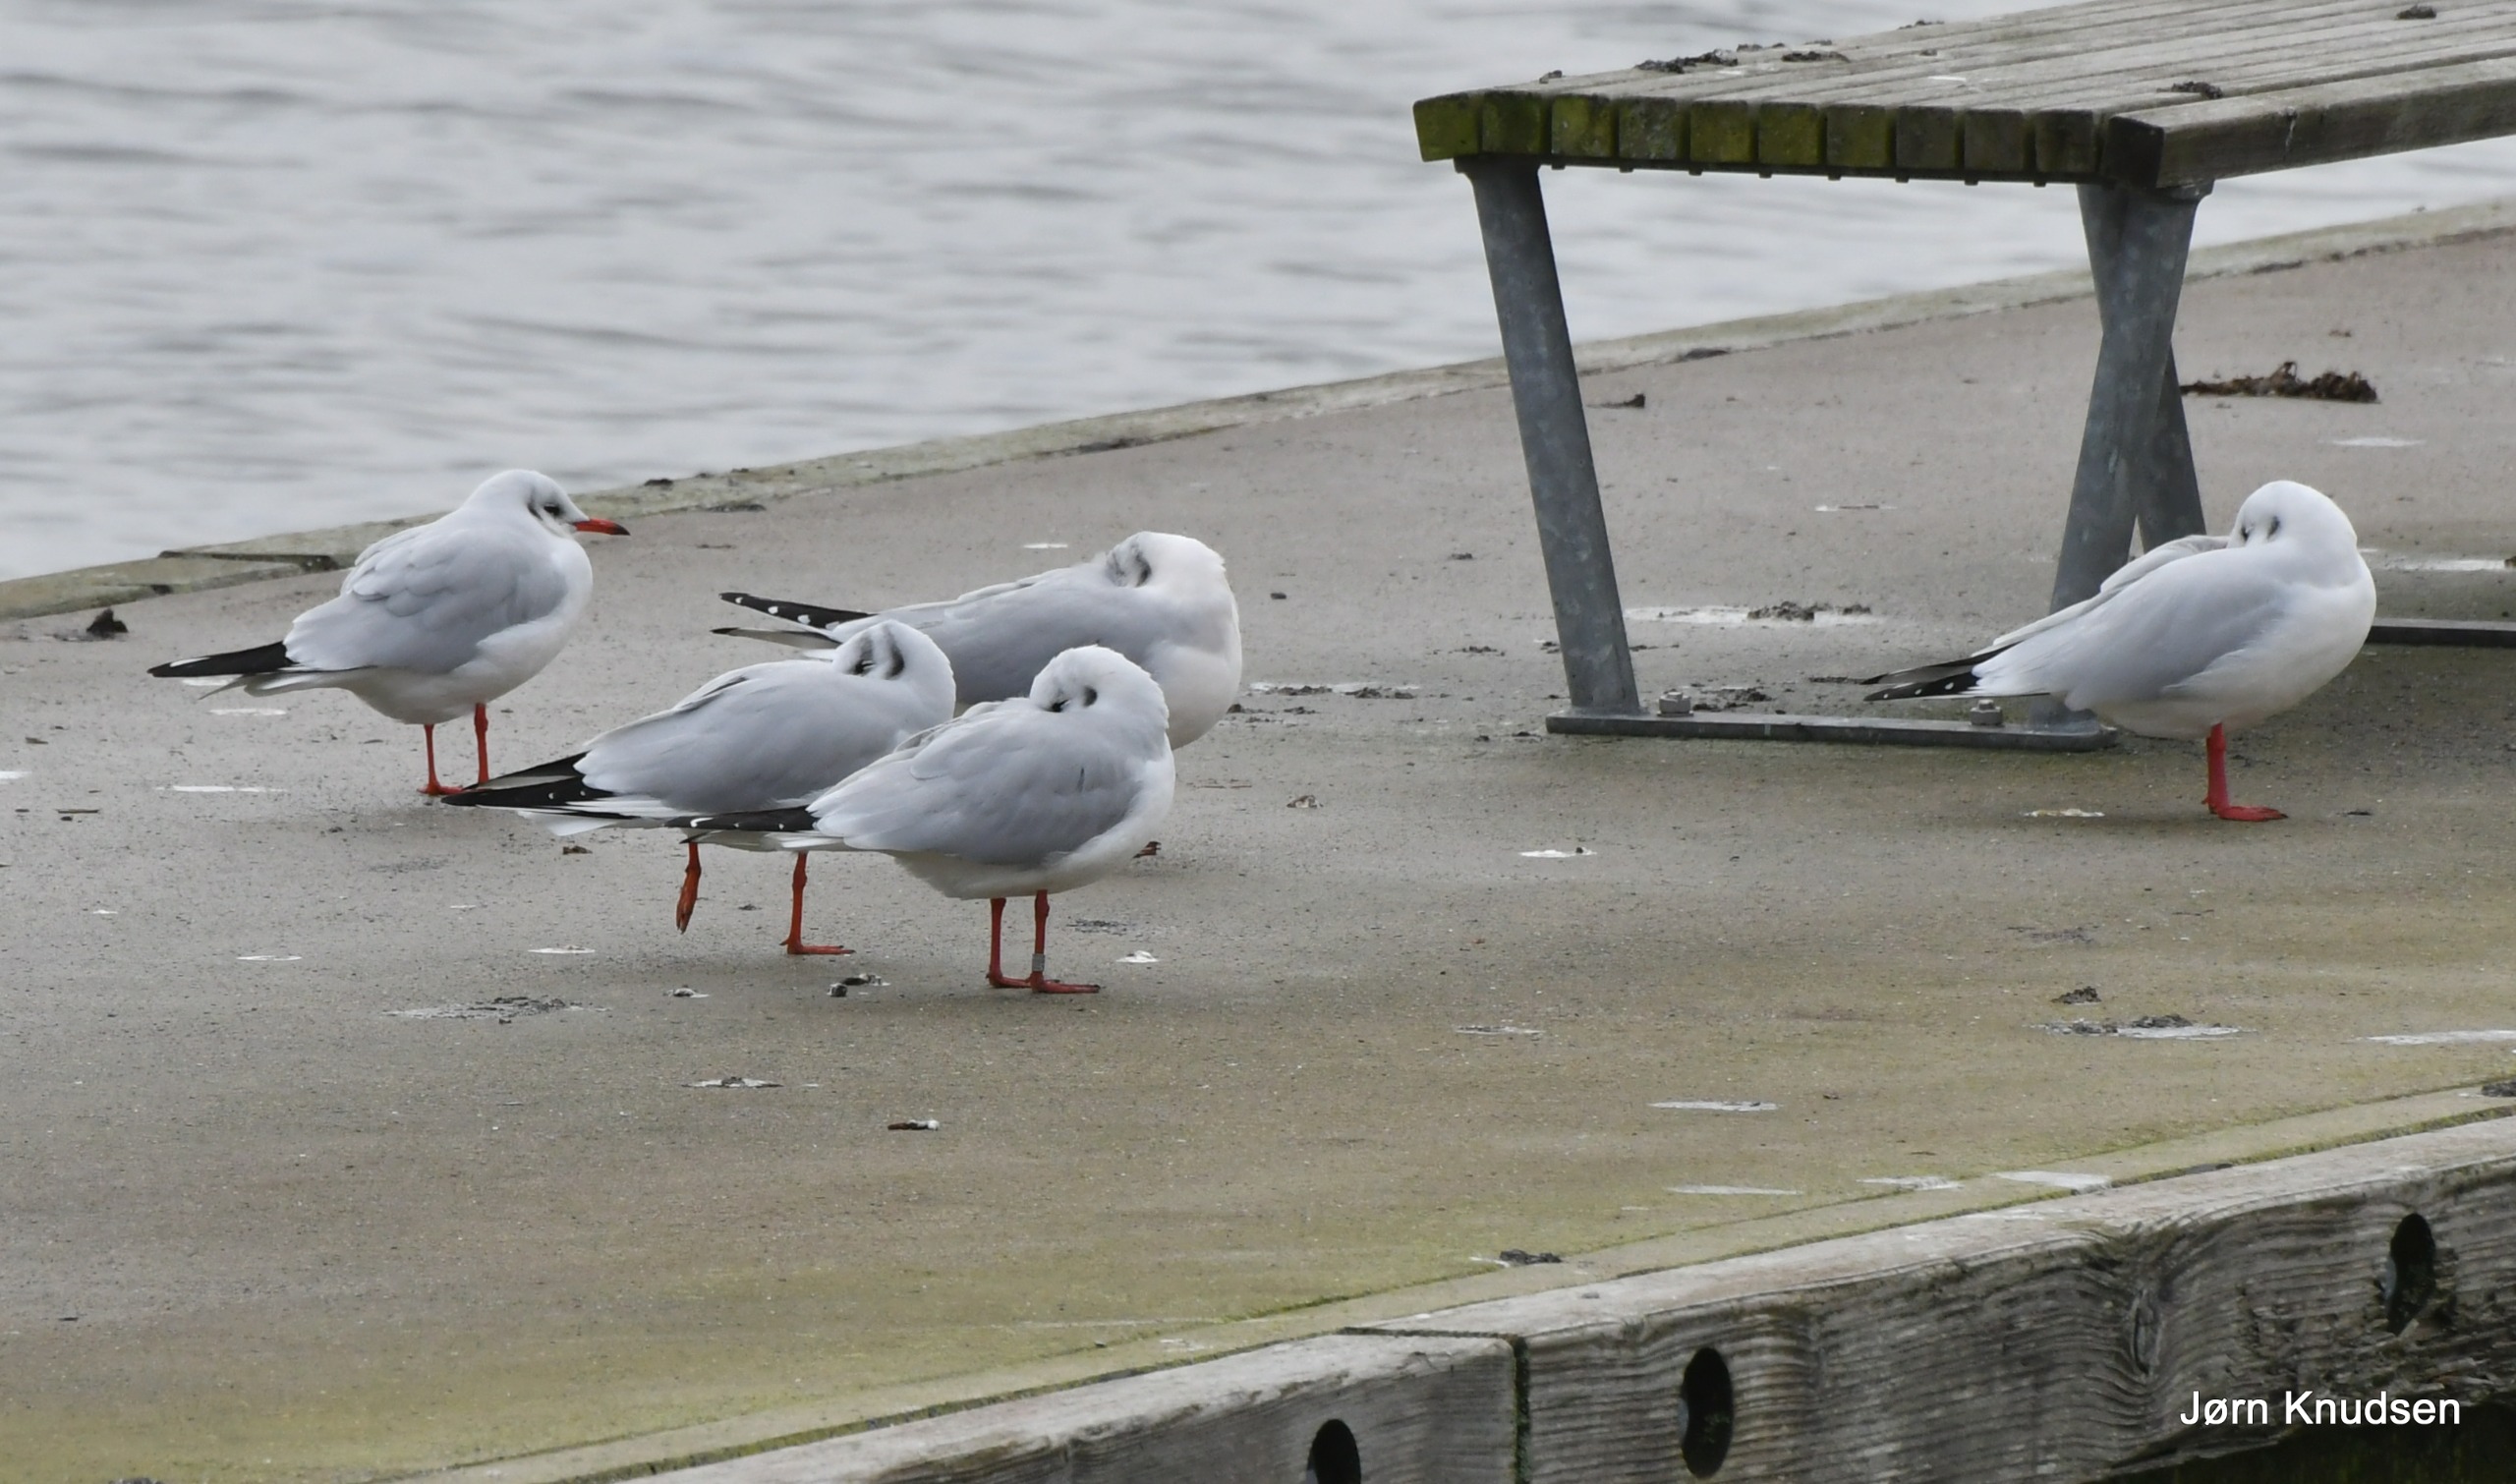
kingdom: Animalia
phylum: Chordata
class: Aves
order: Charadriiformes
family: Laridae
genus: Chroicocephalus
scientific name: Chroicocephalus ridibundus
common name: Hættemåge
